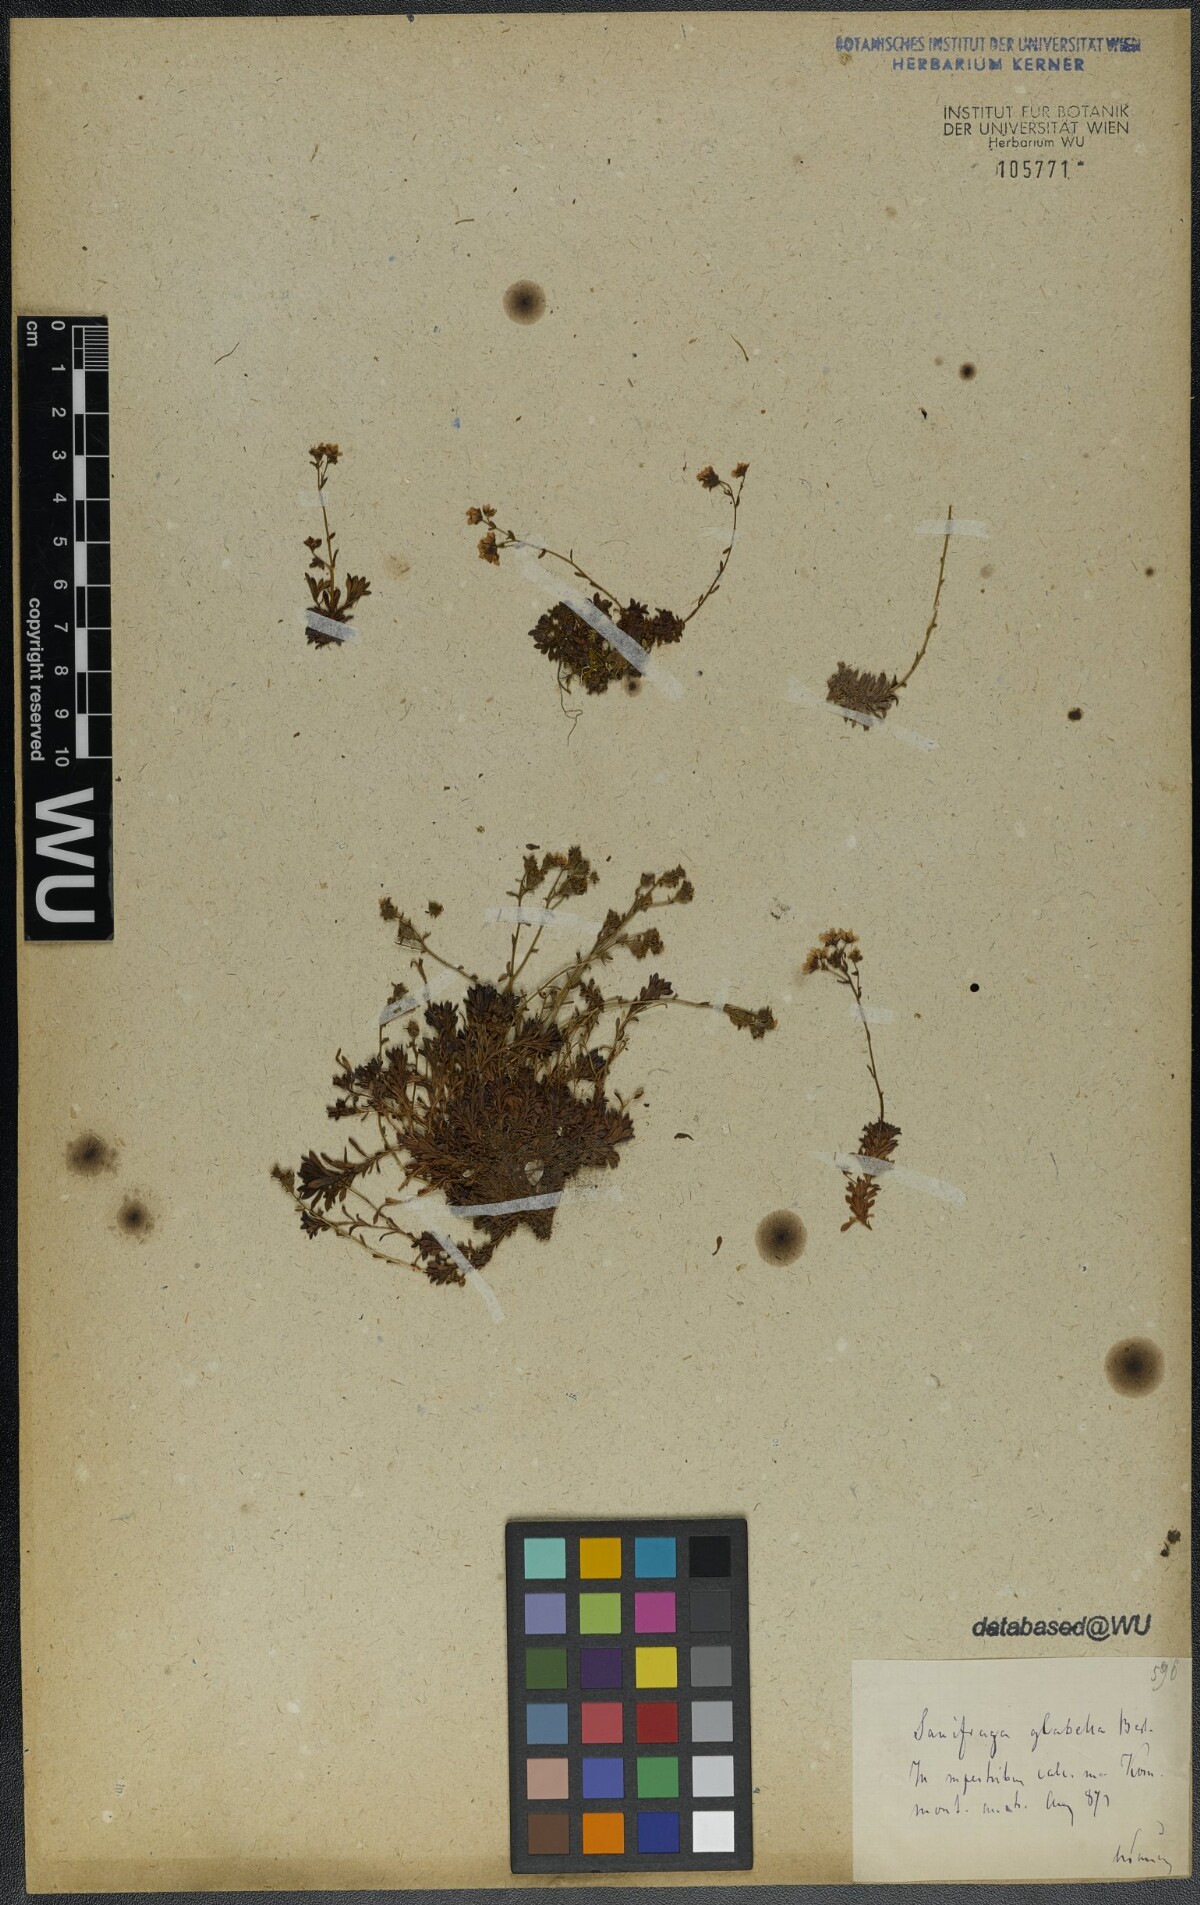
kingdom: Plantae
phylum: Tracheophyta
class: Magnoliopsida
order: Saxifragales
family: Saxifragaceae
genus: Saxifraga
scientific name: Saxifraga glabella
